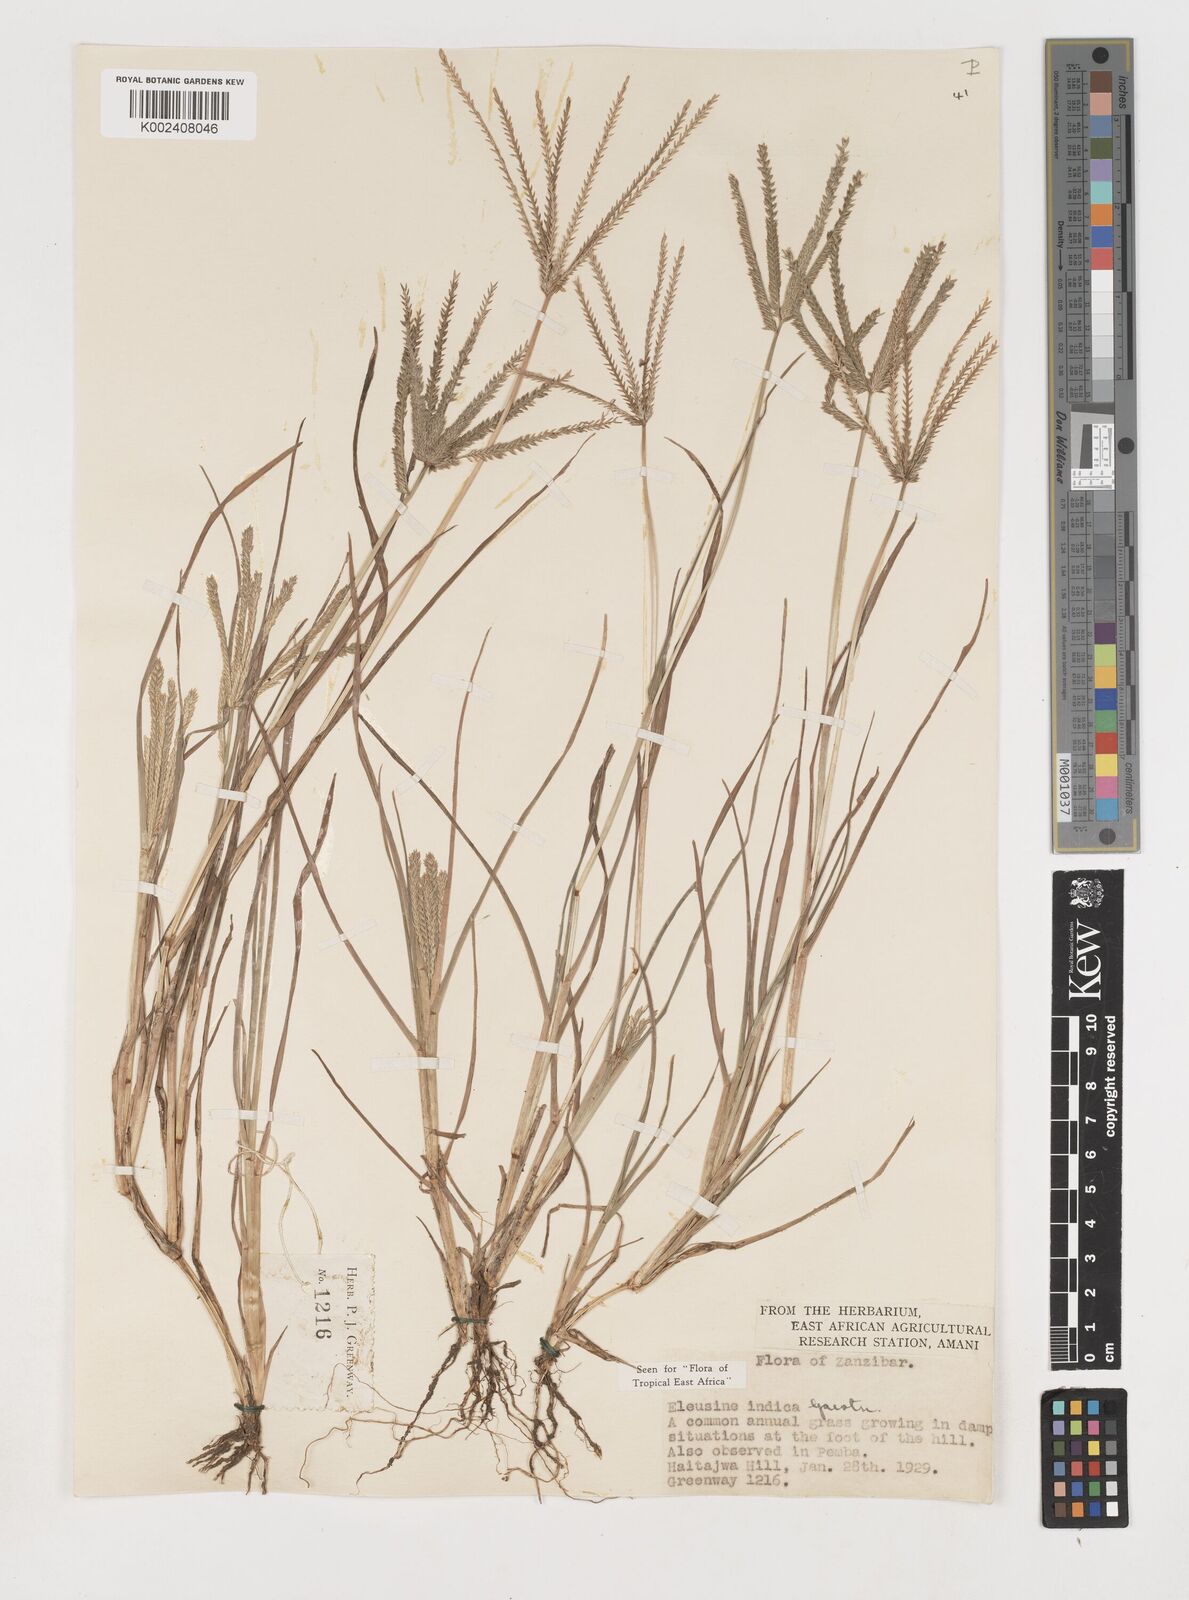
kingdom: Plantae
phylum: Tracheophyta
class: Liliopsida
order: Poales
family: Poaceae
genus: Eleusine
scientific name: Eleusine indica
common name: Yard-grass
